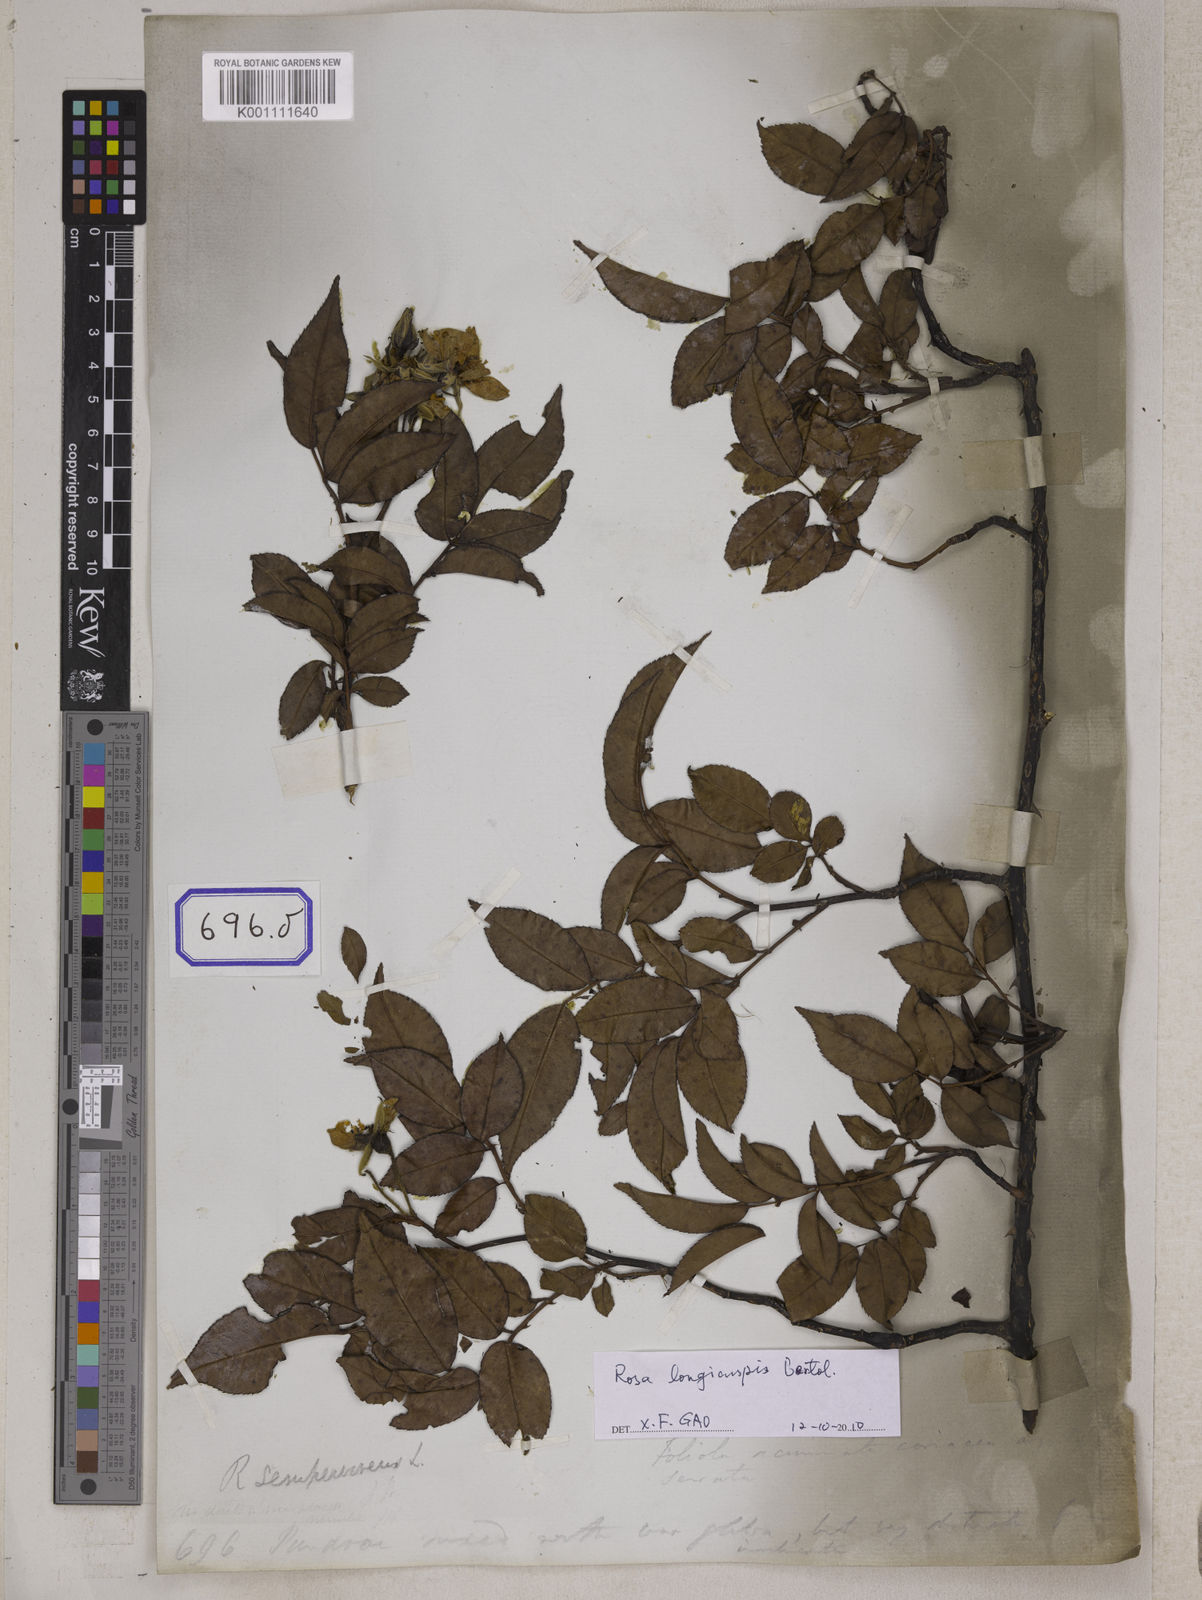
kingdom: Plantae
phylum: Tracheophyta
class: Magnoliopsida
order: Rosales
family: Rosaceae
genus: Rosa
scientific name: Rosa
